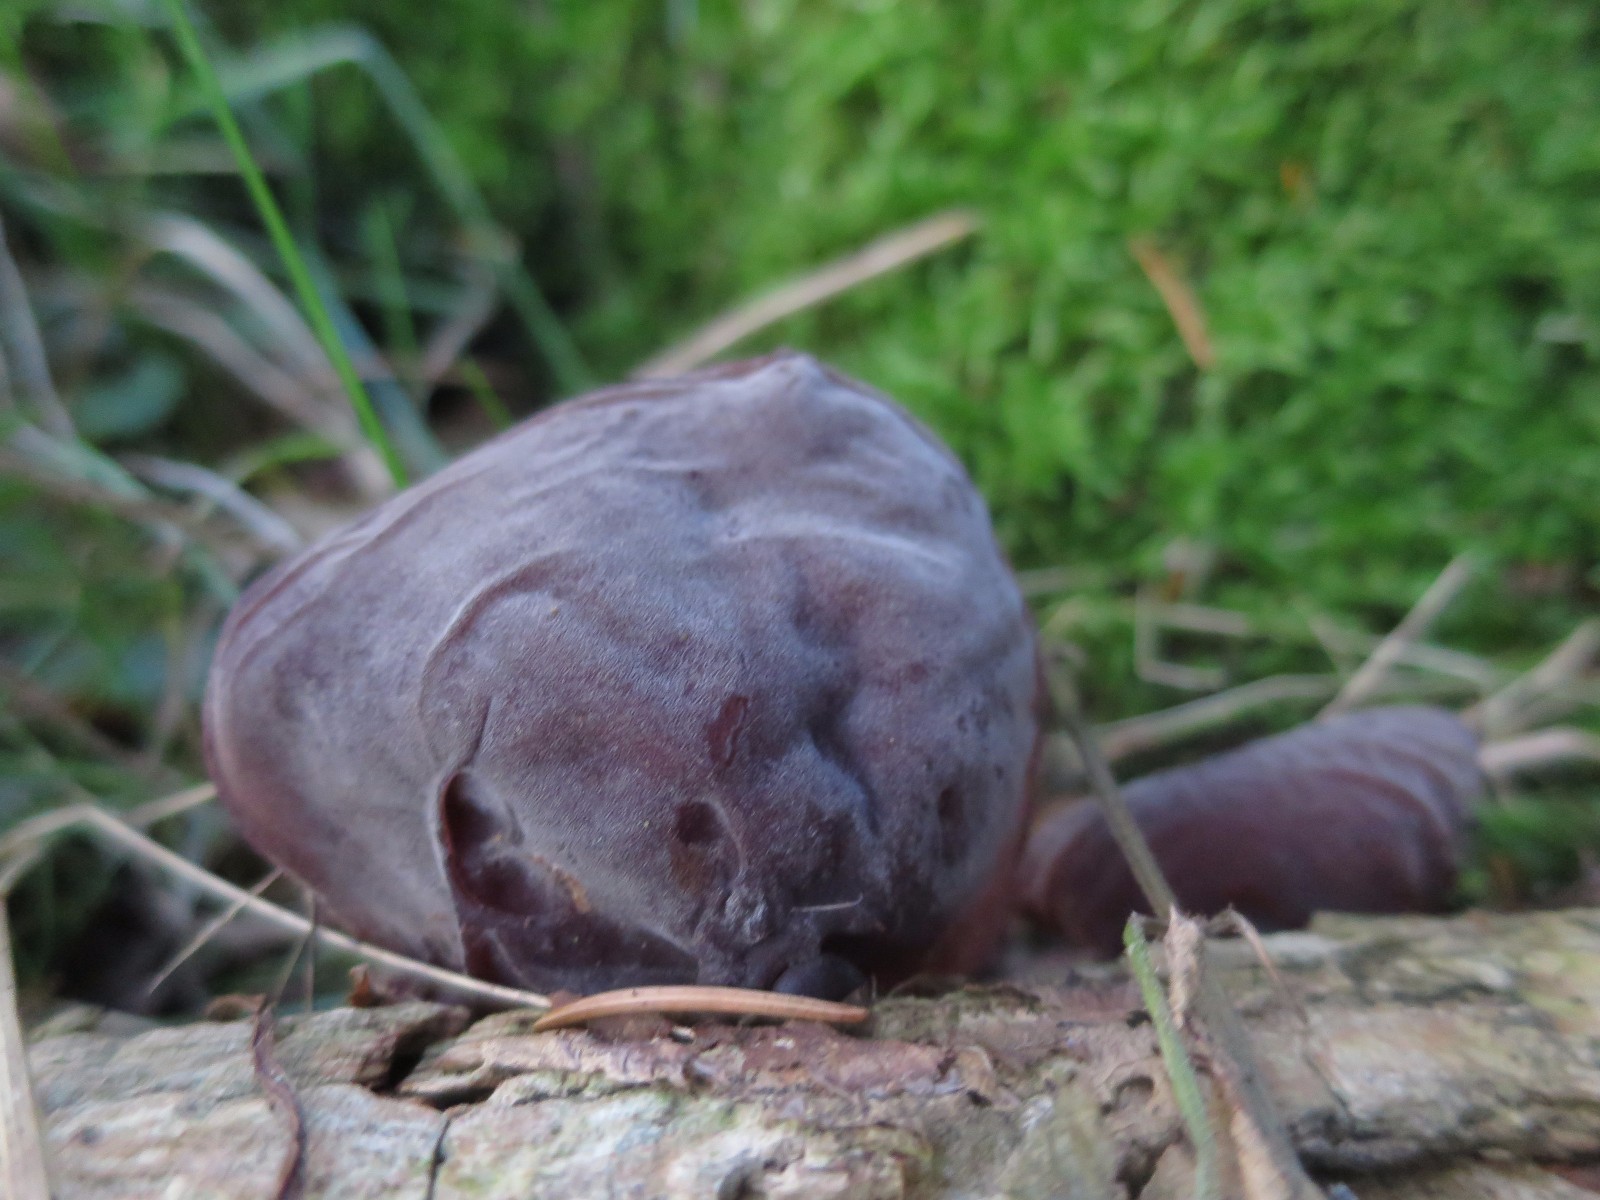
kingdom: Fungi
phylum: Basidiomycota
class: Agaricomycetes
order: Auriculariales
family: Auriculariaceae
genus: Auricularia
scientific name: Auricularia auricula-judae
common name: almindelig judasøre
